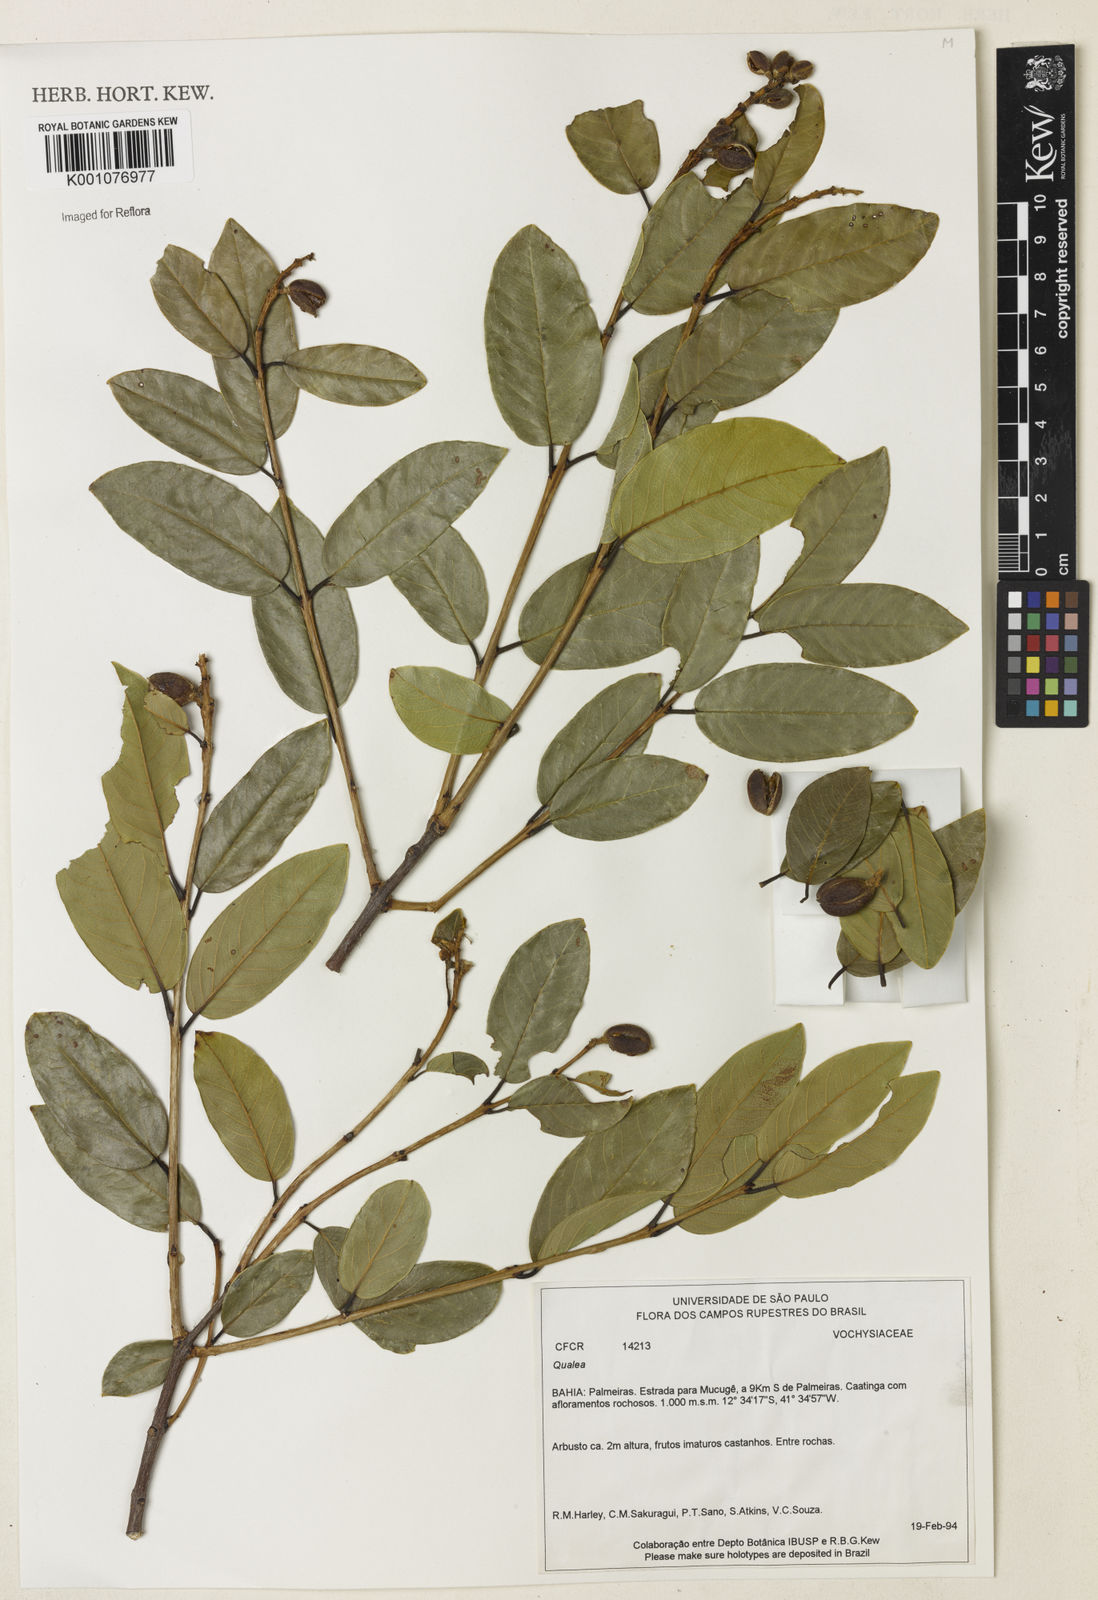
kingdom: Plantae
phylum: Tracheophyta
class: Magnoliopsida
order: Myrtales
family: Vochysiaceae
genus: Qualea
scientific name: Qualea
